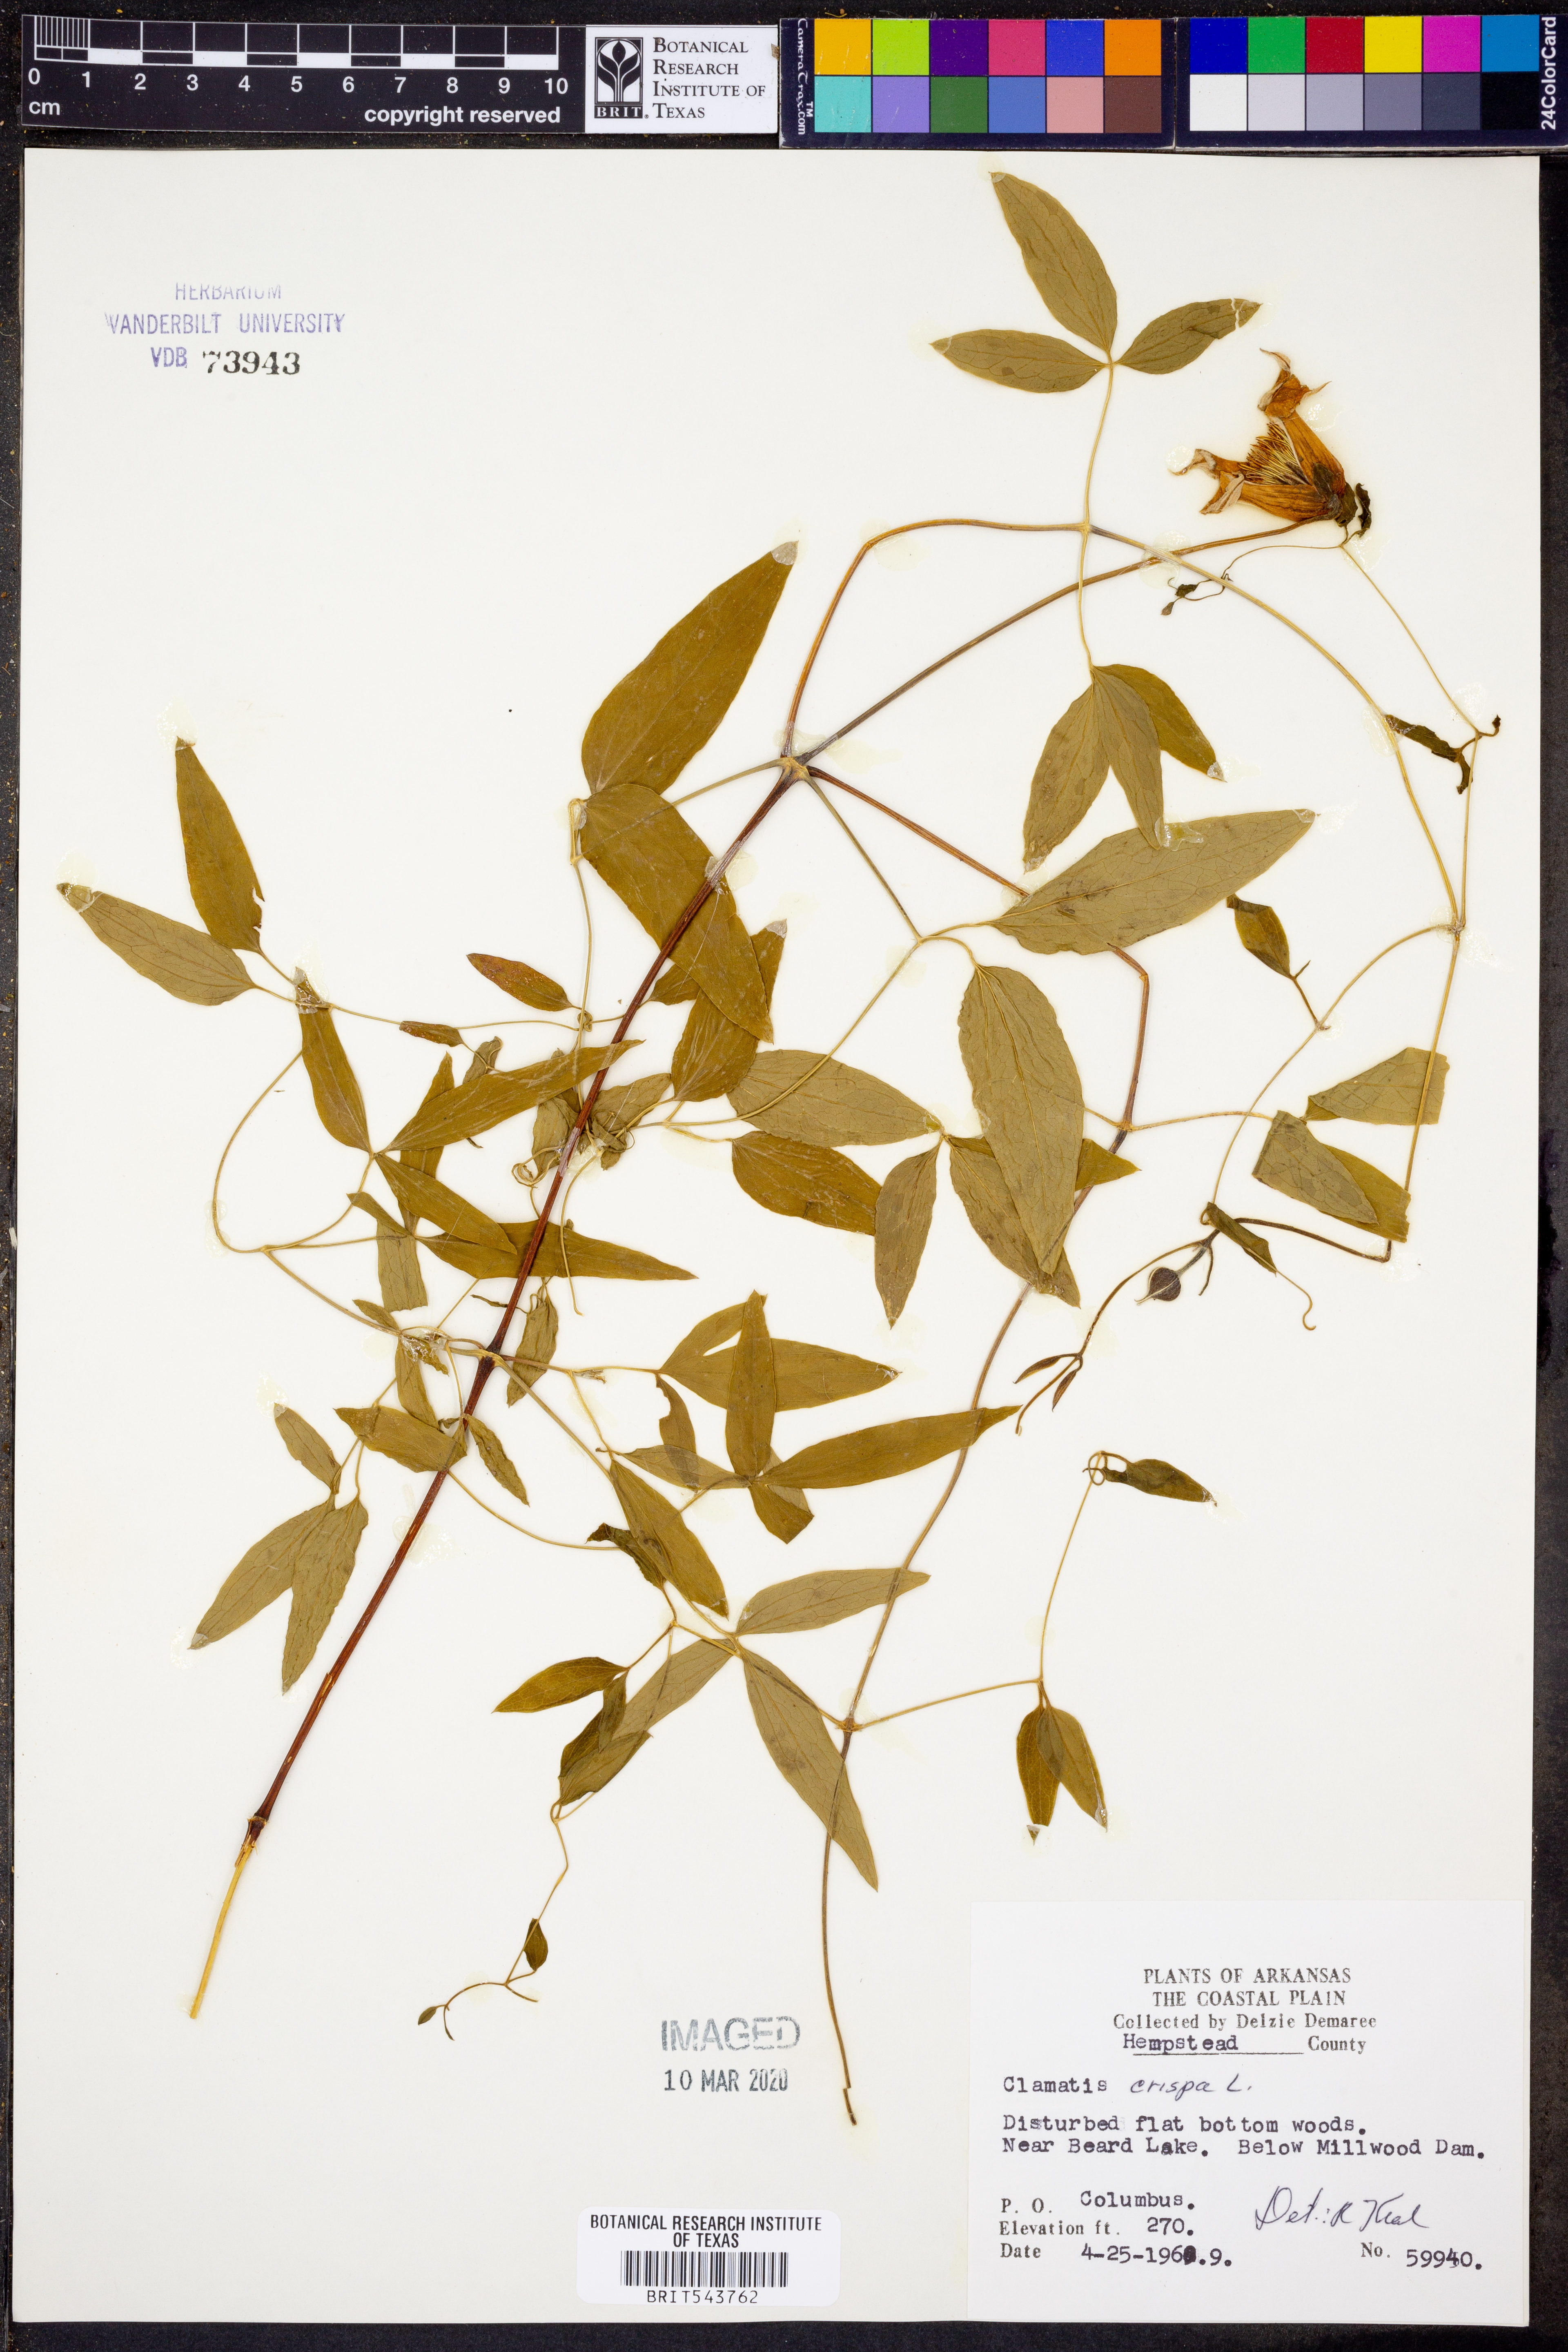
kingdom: Plantae
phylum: Tracheophyta
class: Magnoliopsida
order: Ranunculales
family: Ranunculaceae
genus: Clematis
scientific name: Clematis crispa
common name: Curly clematis
